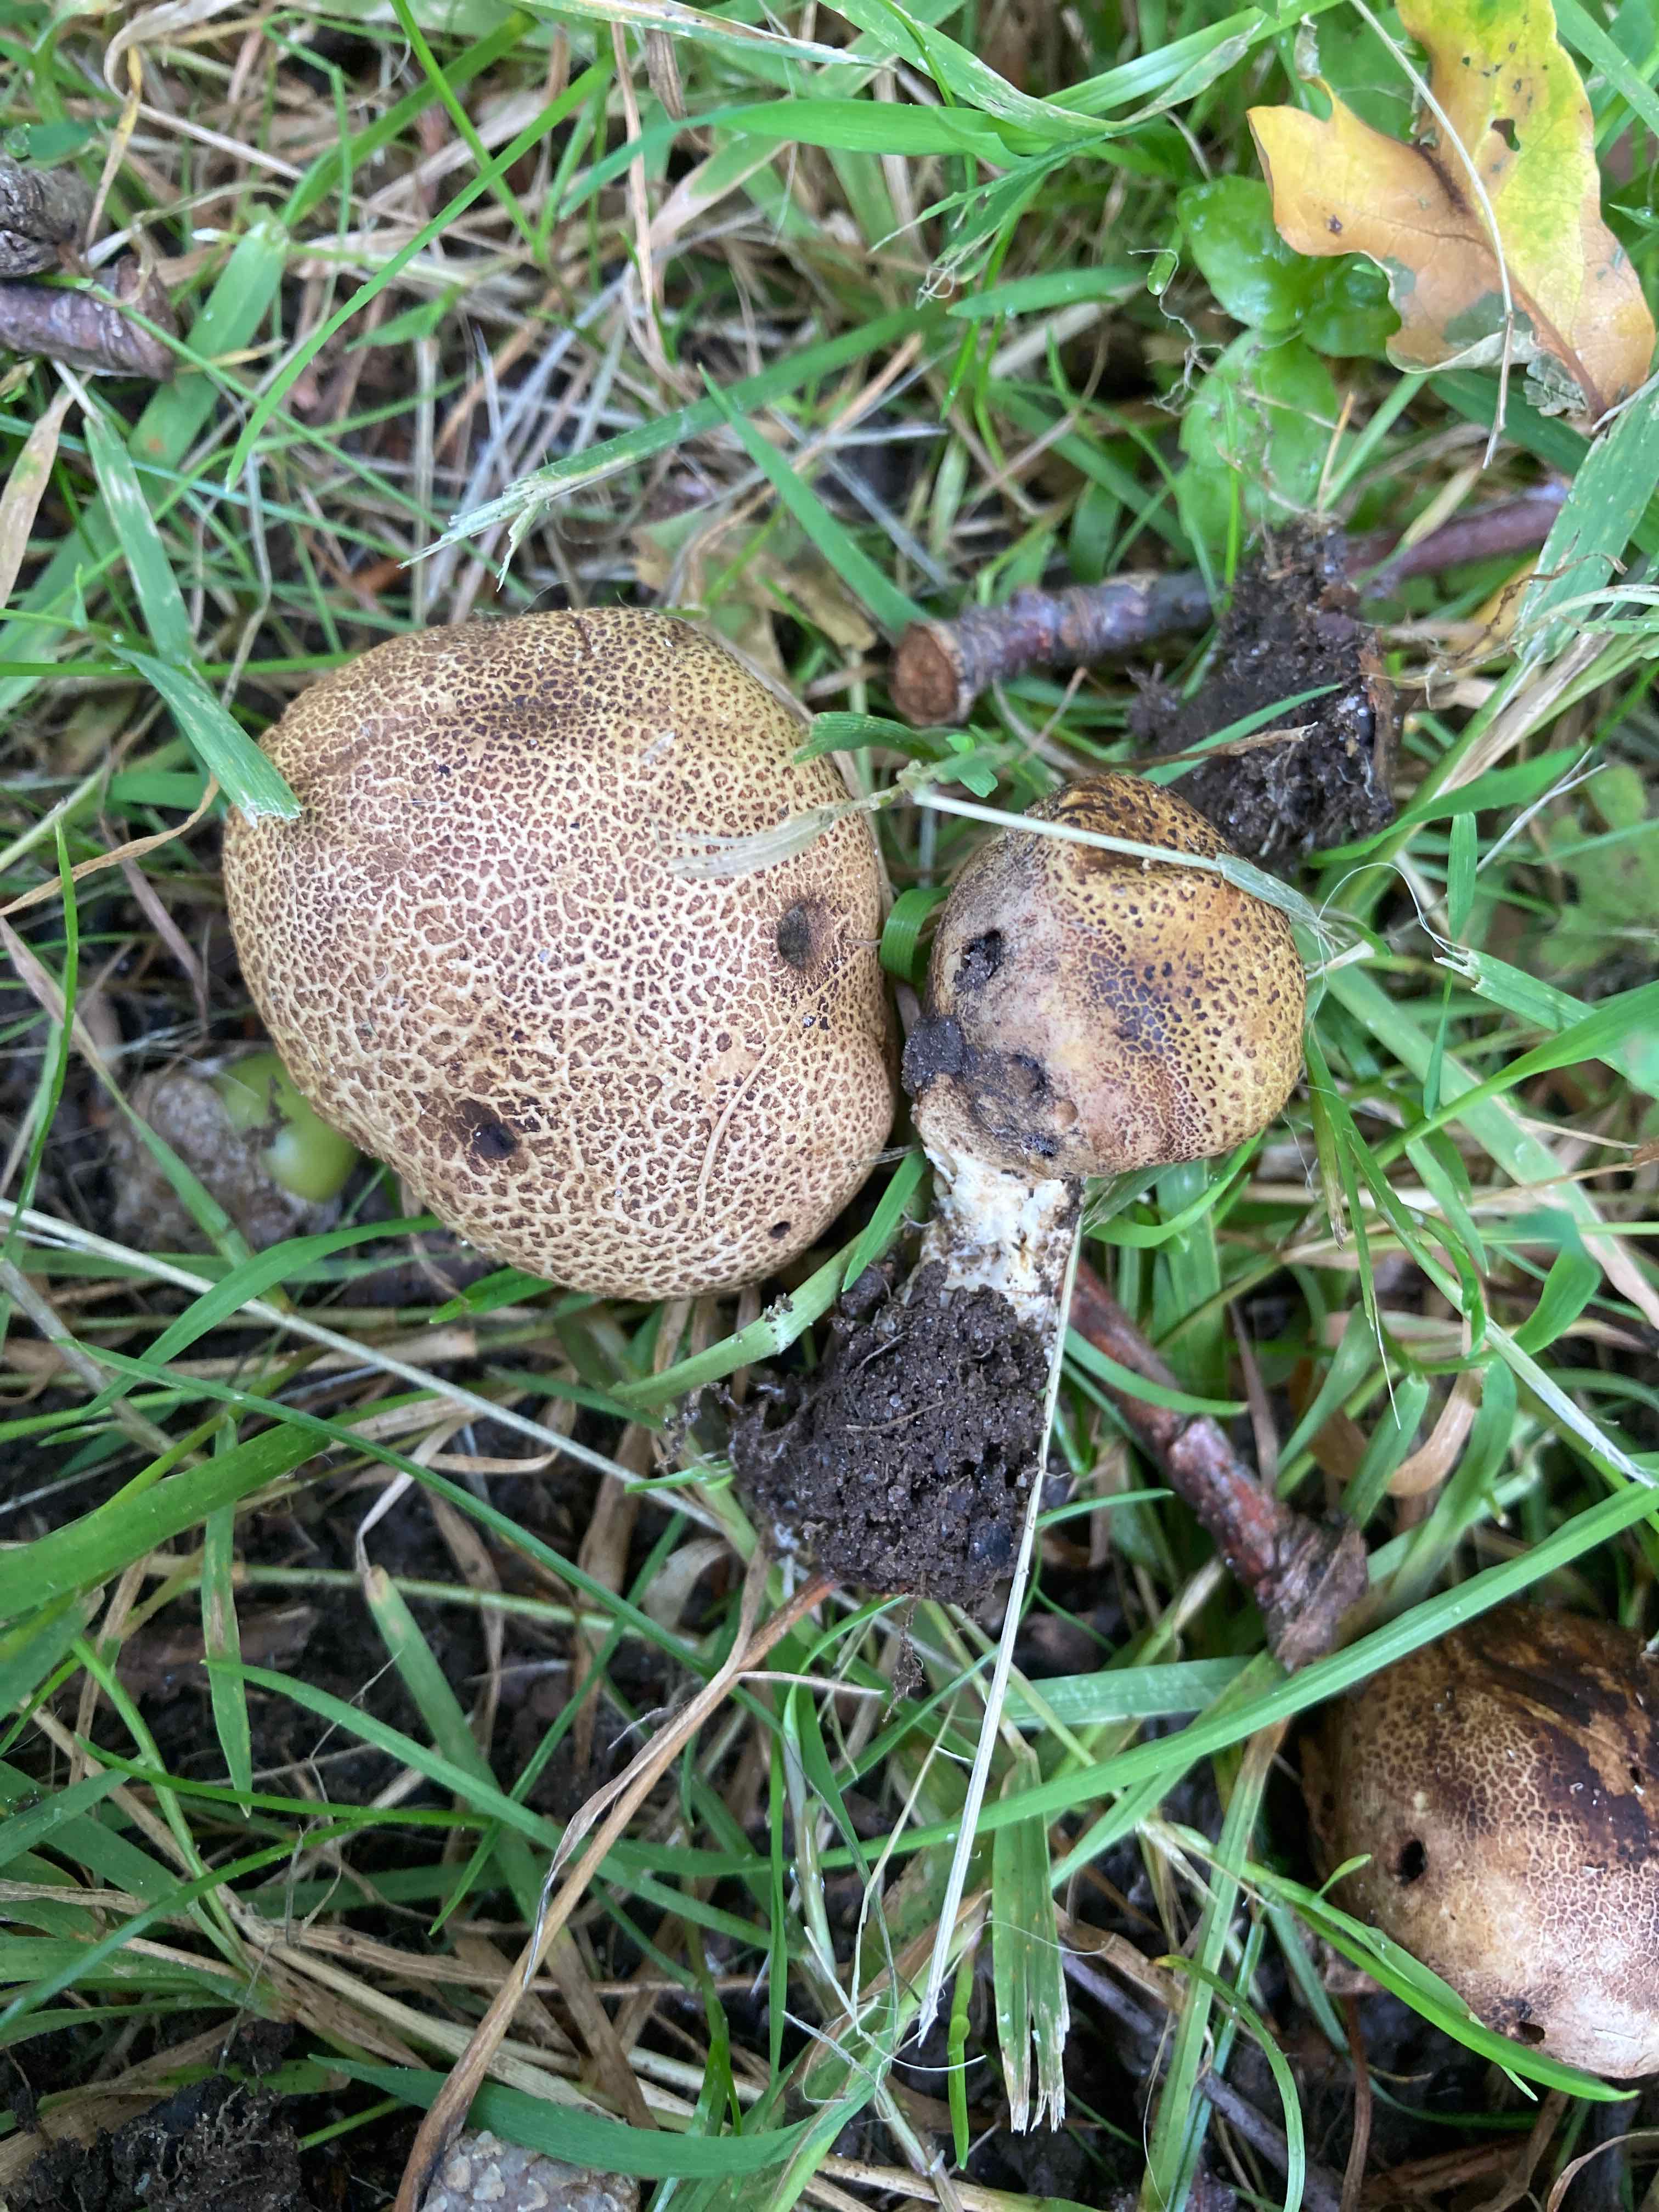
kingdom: Fungi
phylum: Basidiomycota
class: Agaricomycetes
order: Boletales
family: Sclerodermataceae
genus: Scleroderma
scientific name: Scleroderma verrucosum
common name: stilket bruskbold
